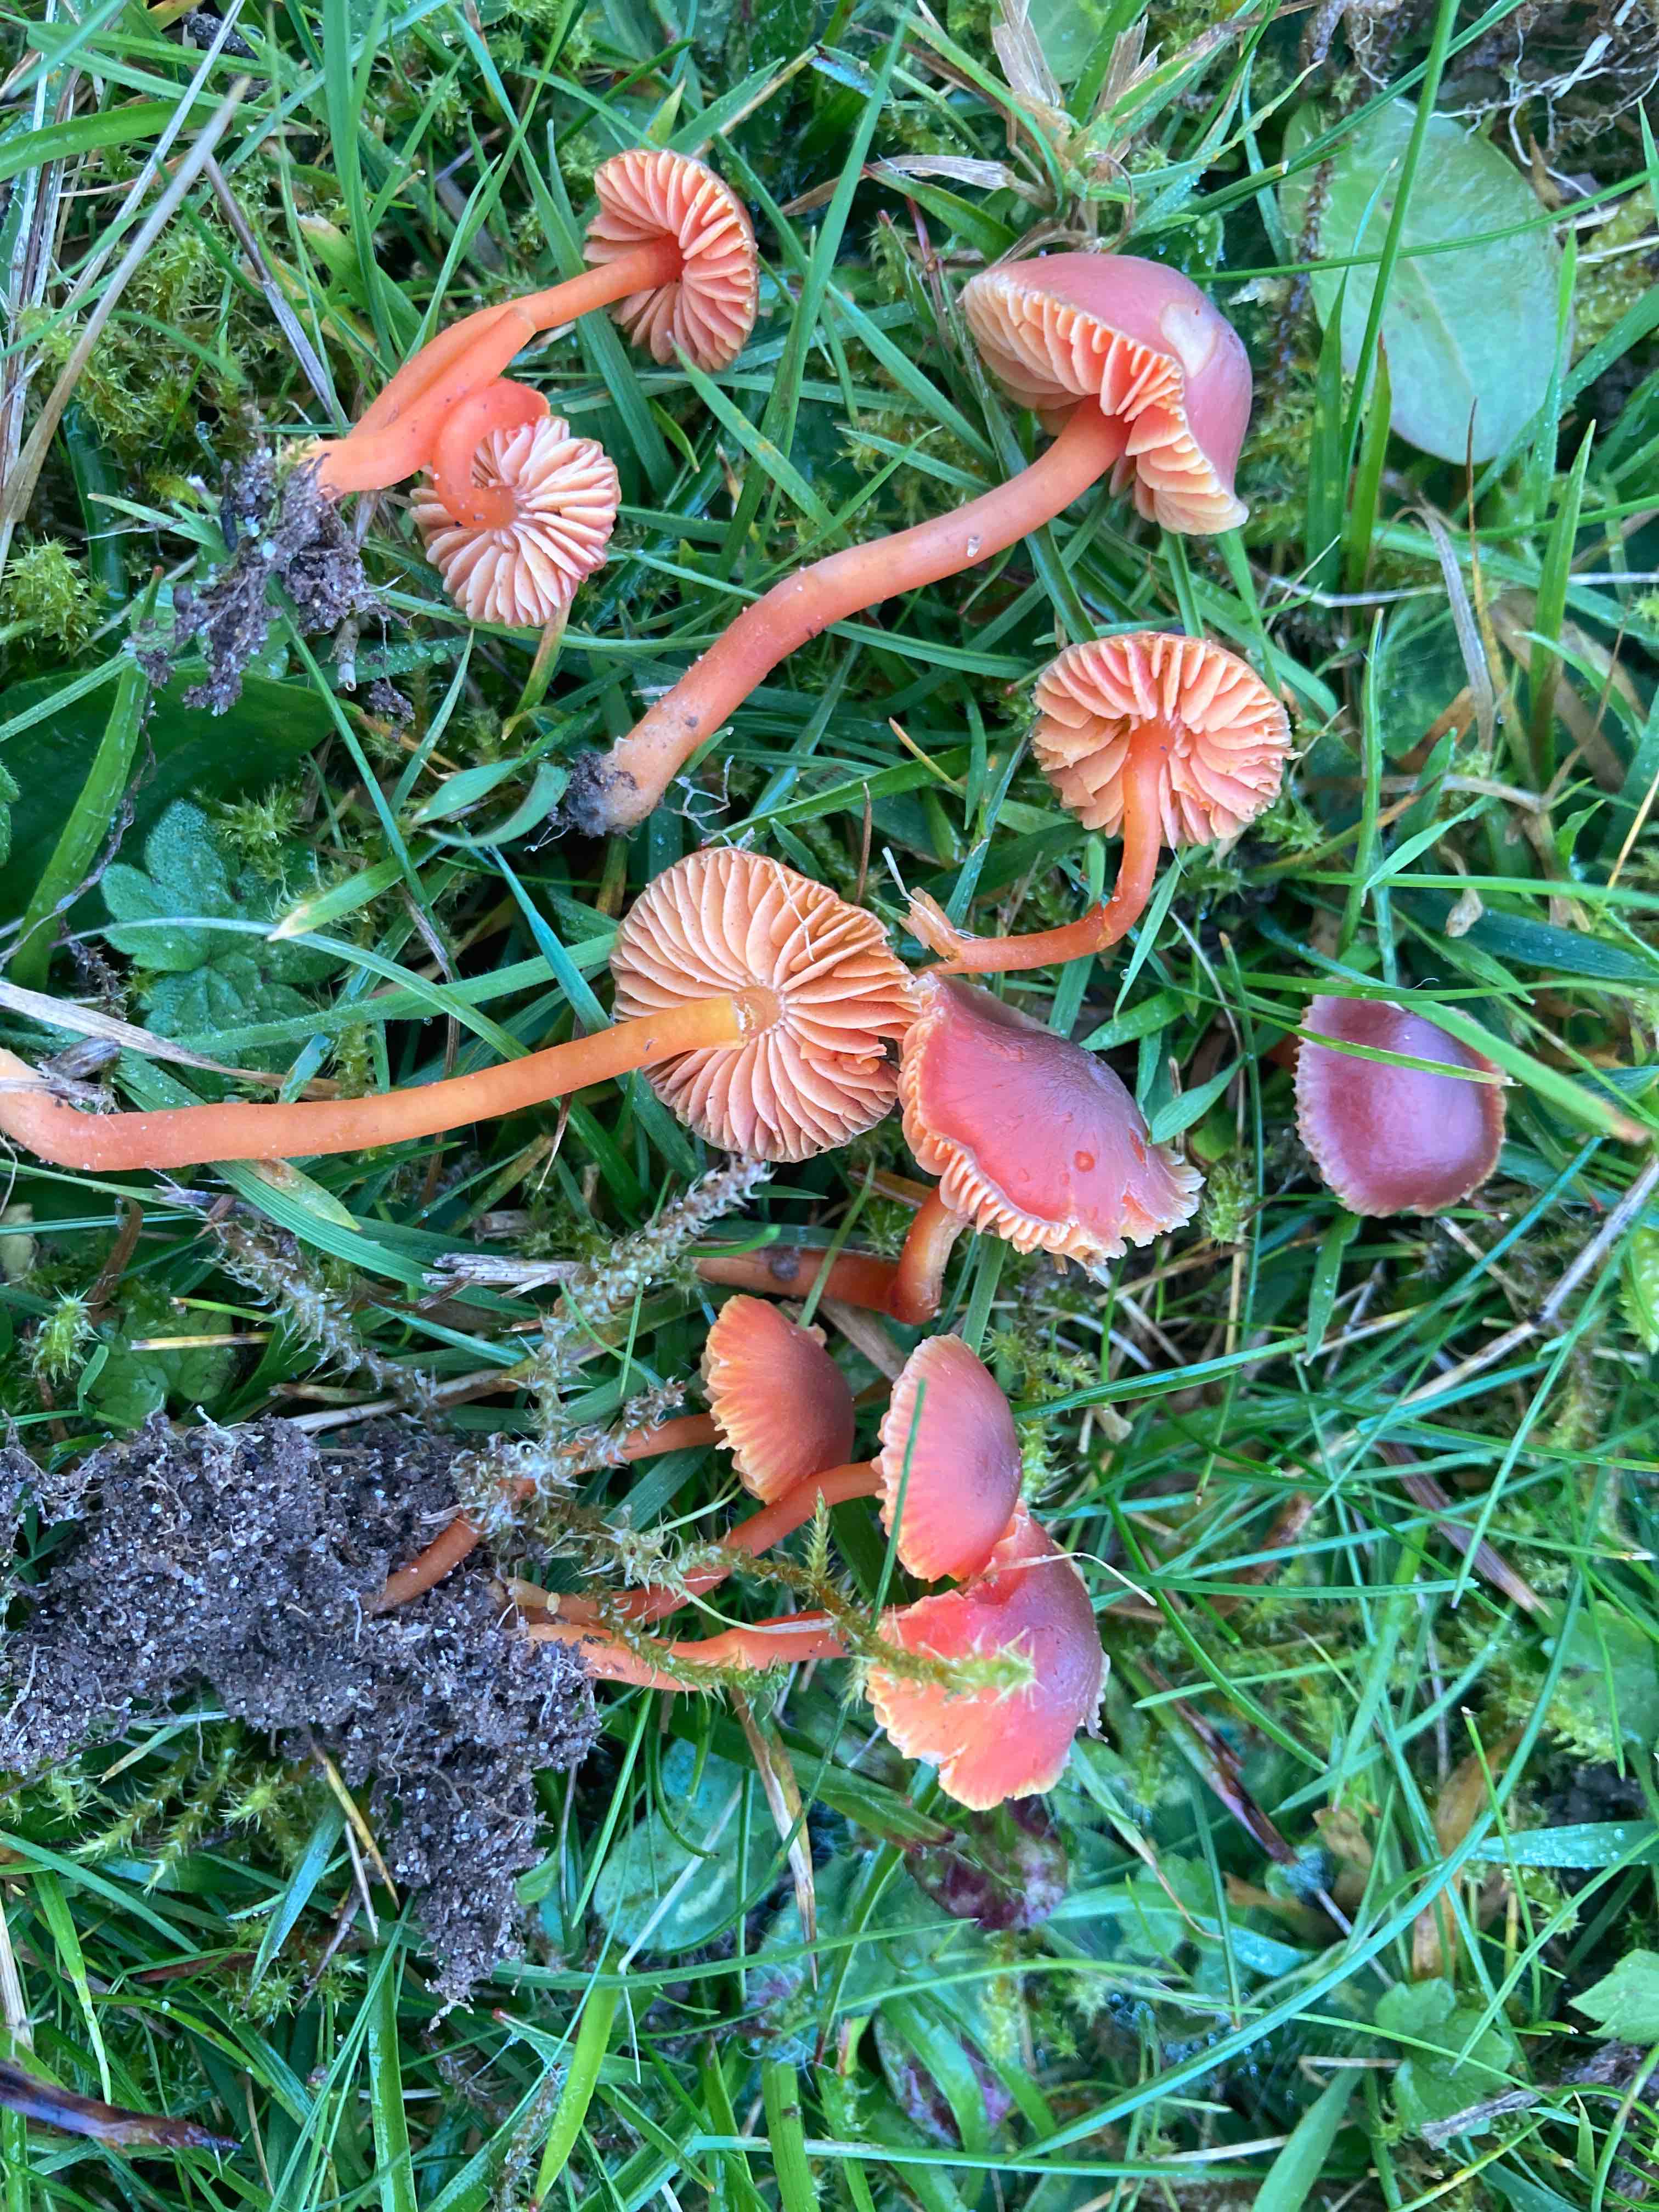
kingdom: Fungi
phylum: Basidiomycota
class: Agaricomycetes
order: Agaricales
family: Hygrophoraceae
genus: Hygrocybe
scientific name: Hygrocybe phaeococcinea
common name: sortdugget vokshat
